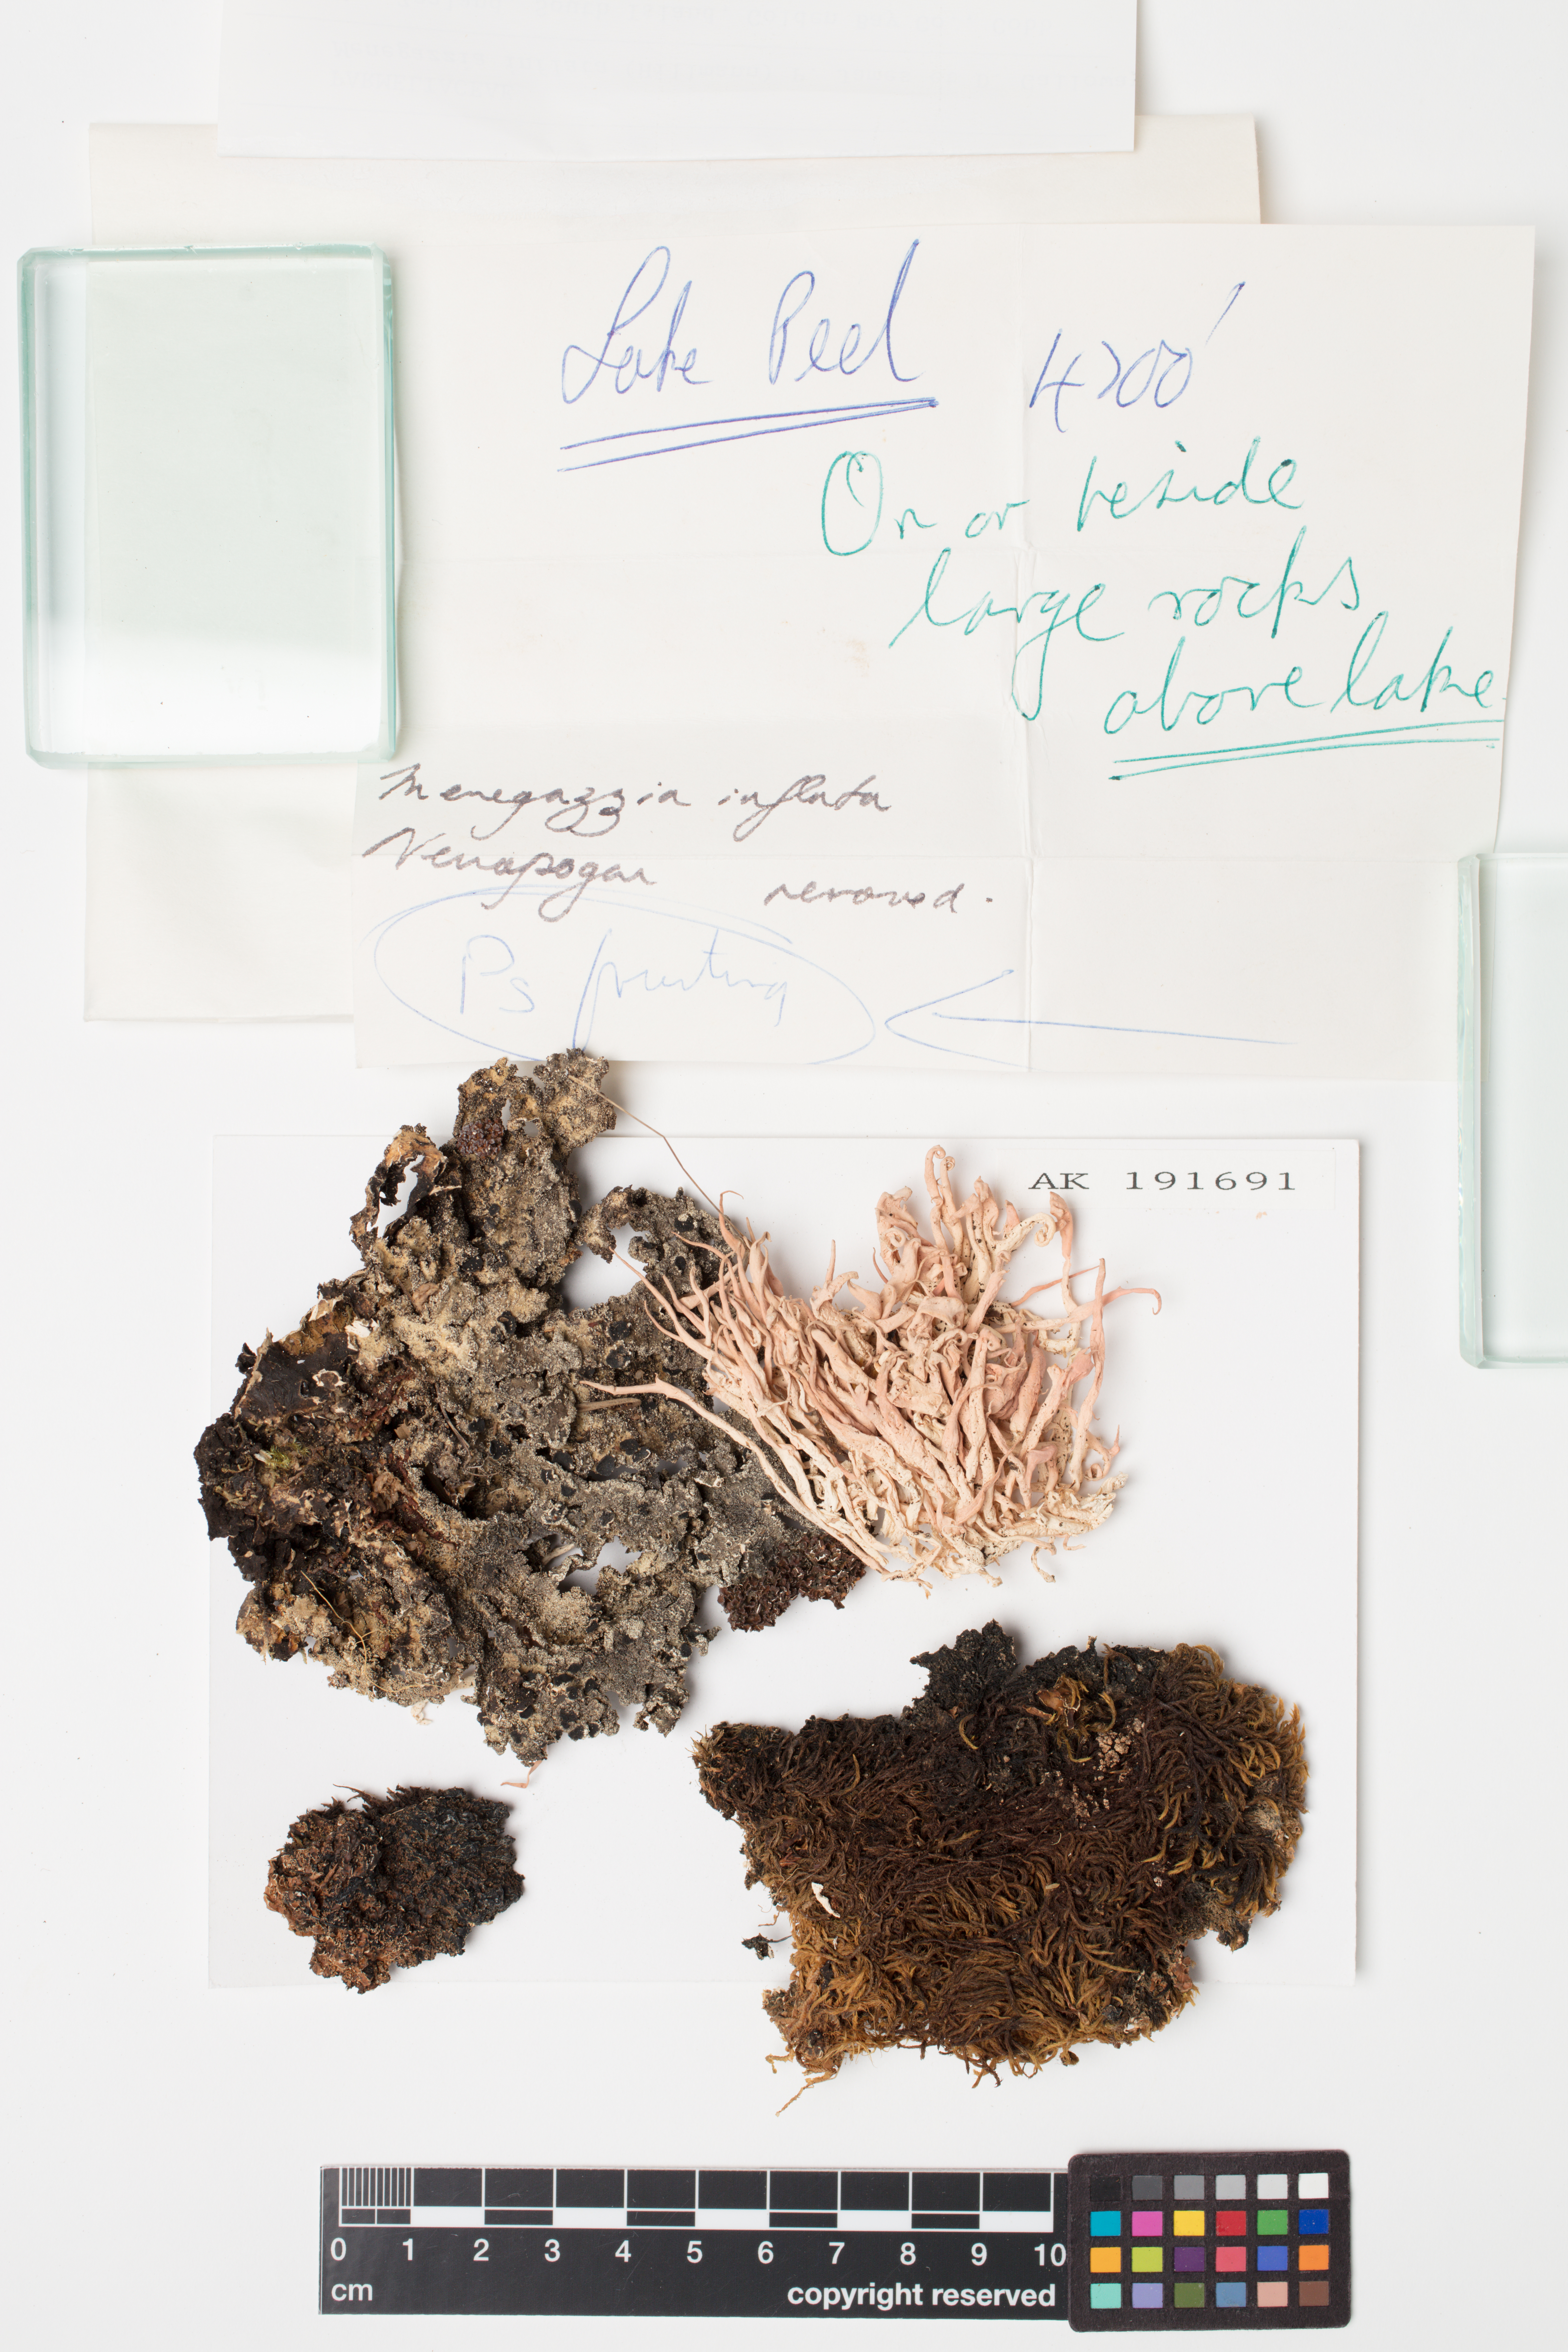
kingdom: Fungi
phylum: Ascomycota
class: Lecanoromycetes
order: Lecanorales
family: Parmeliaceae
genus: Menegazzia
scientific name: Menegazzia
